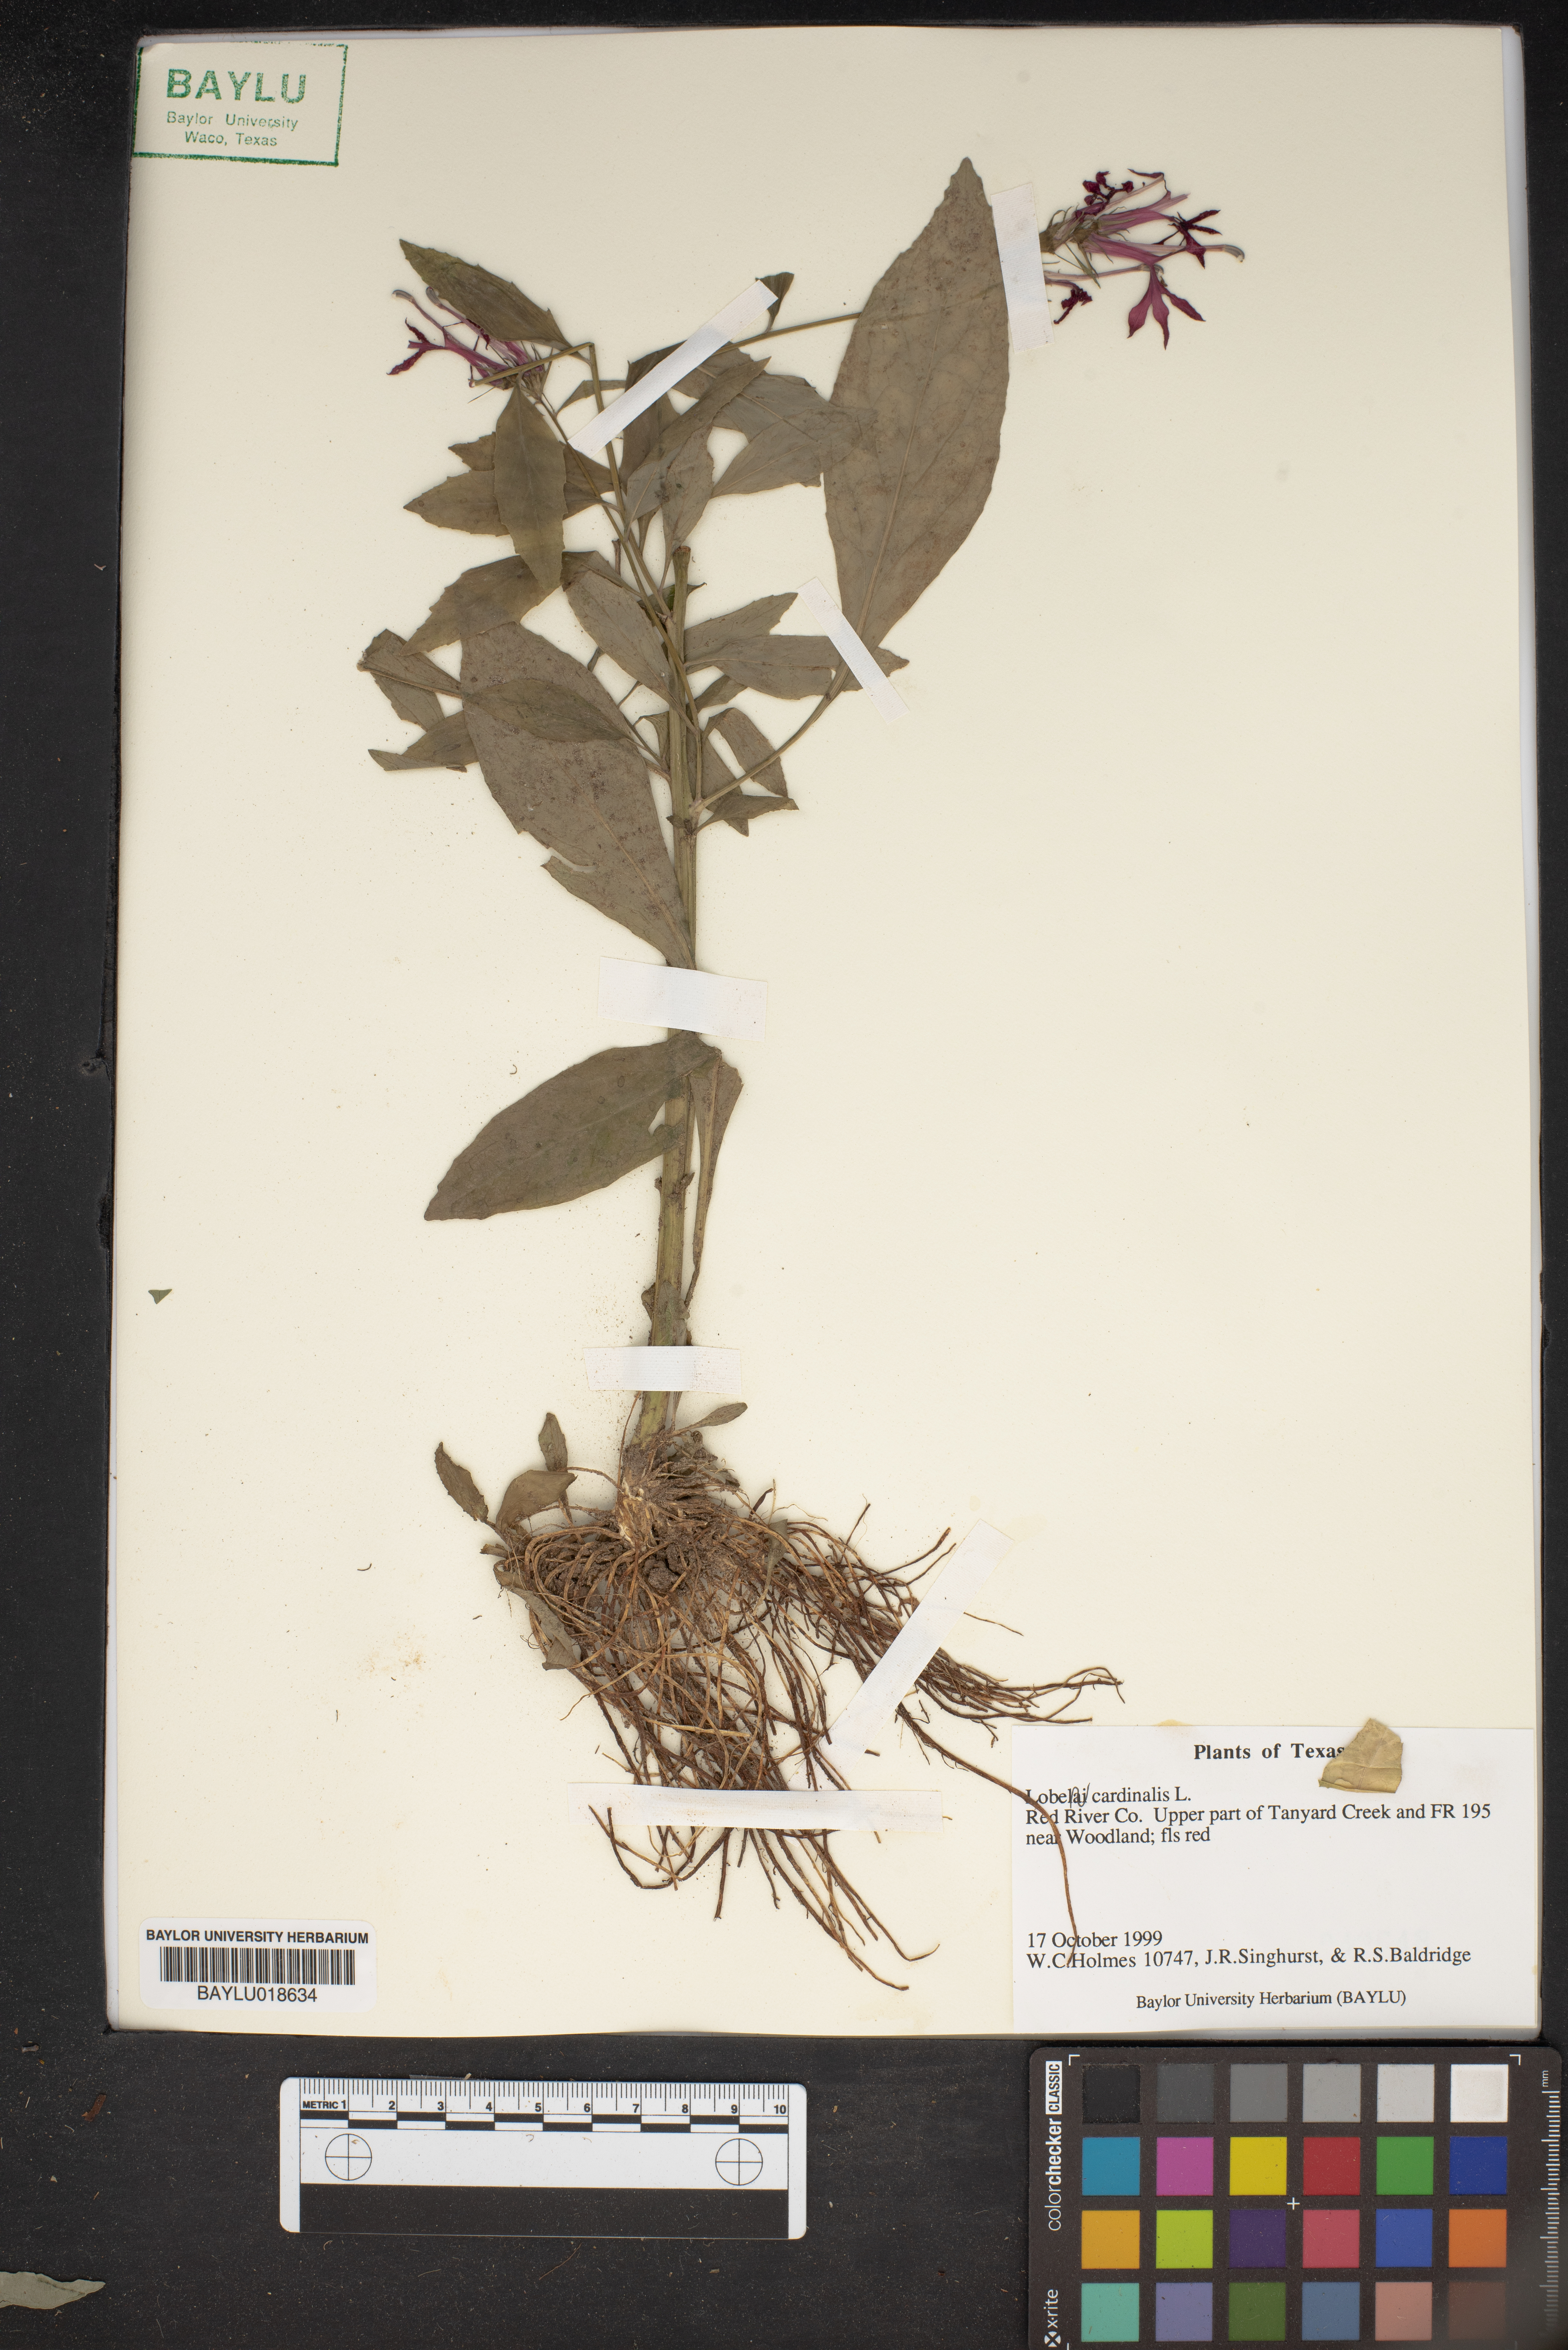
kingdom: Plantae
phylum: Tracheophyta
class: Magnoliopsida
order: Asterales
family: Campanulaceae
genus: Lobelia
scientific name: Lobelia cardinalis
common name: Cardinal flower
